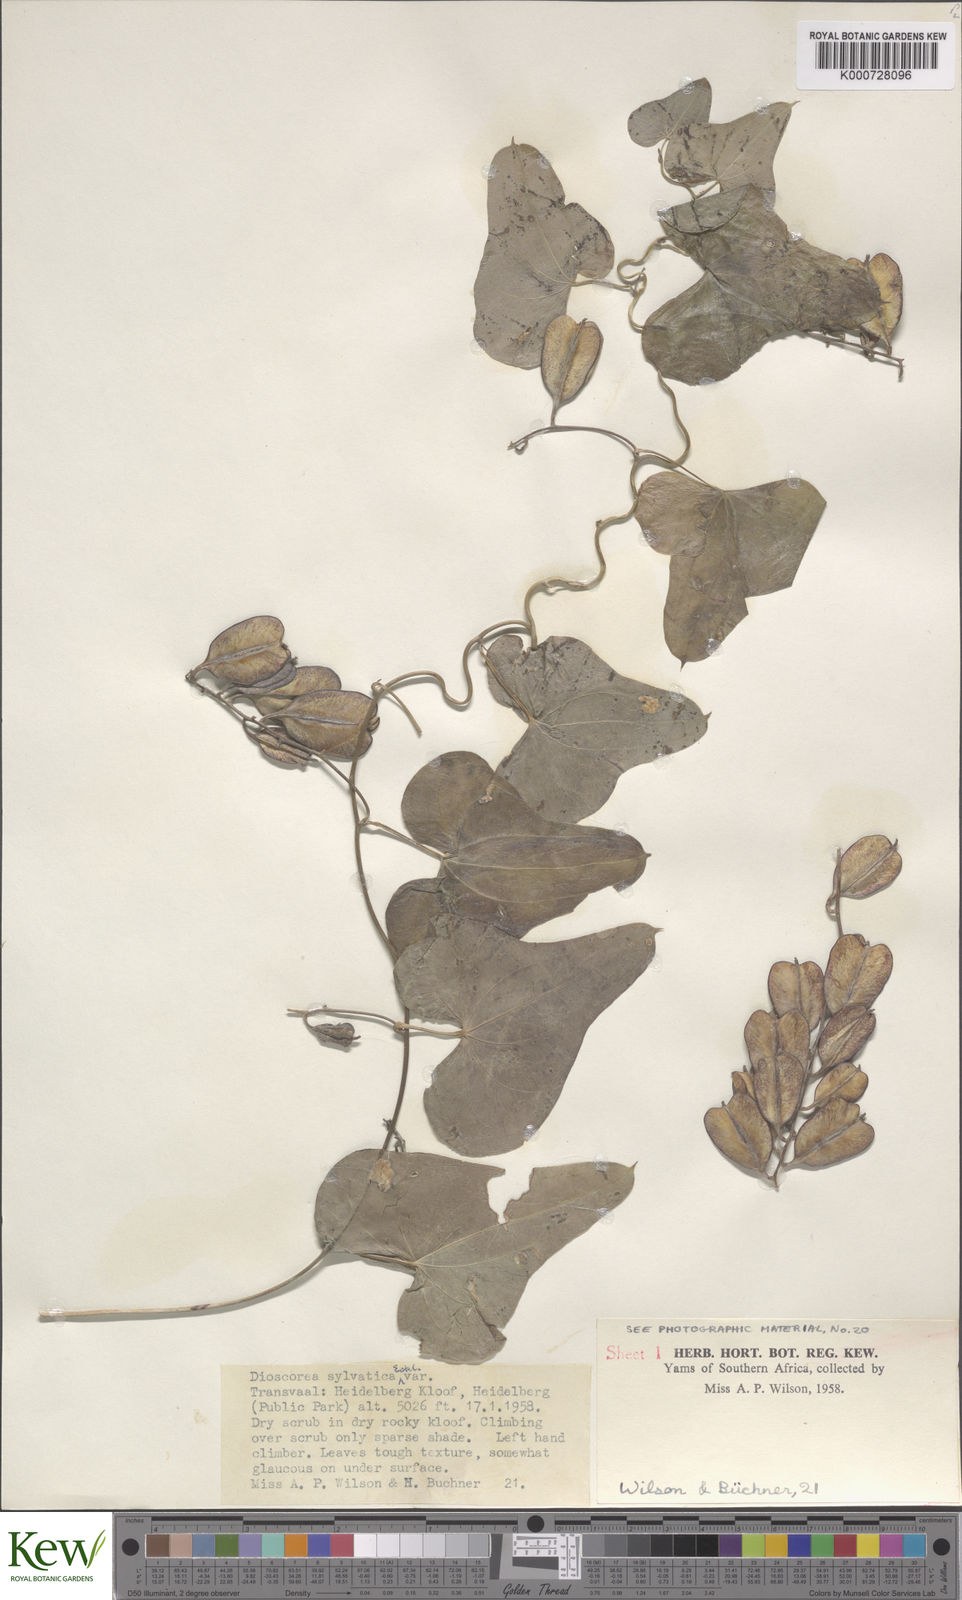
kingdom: Plantae
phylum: Tracheophyta
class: Liliopsida
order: Dioscoreales
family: Dioscoreaceae
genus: Dioscorea
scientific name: Dioscorea sylvatica
